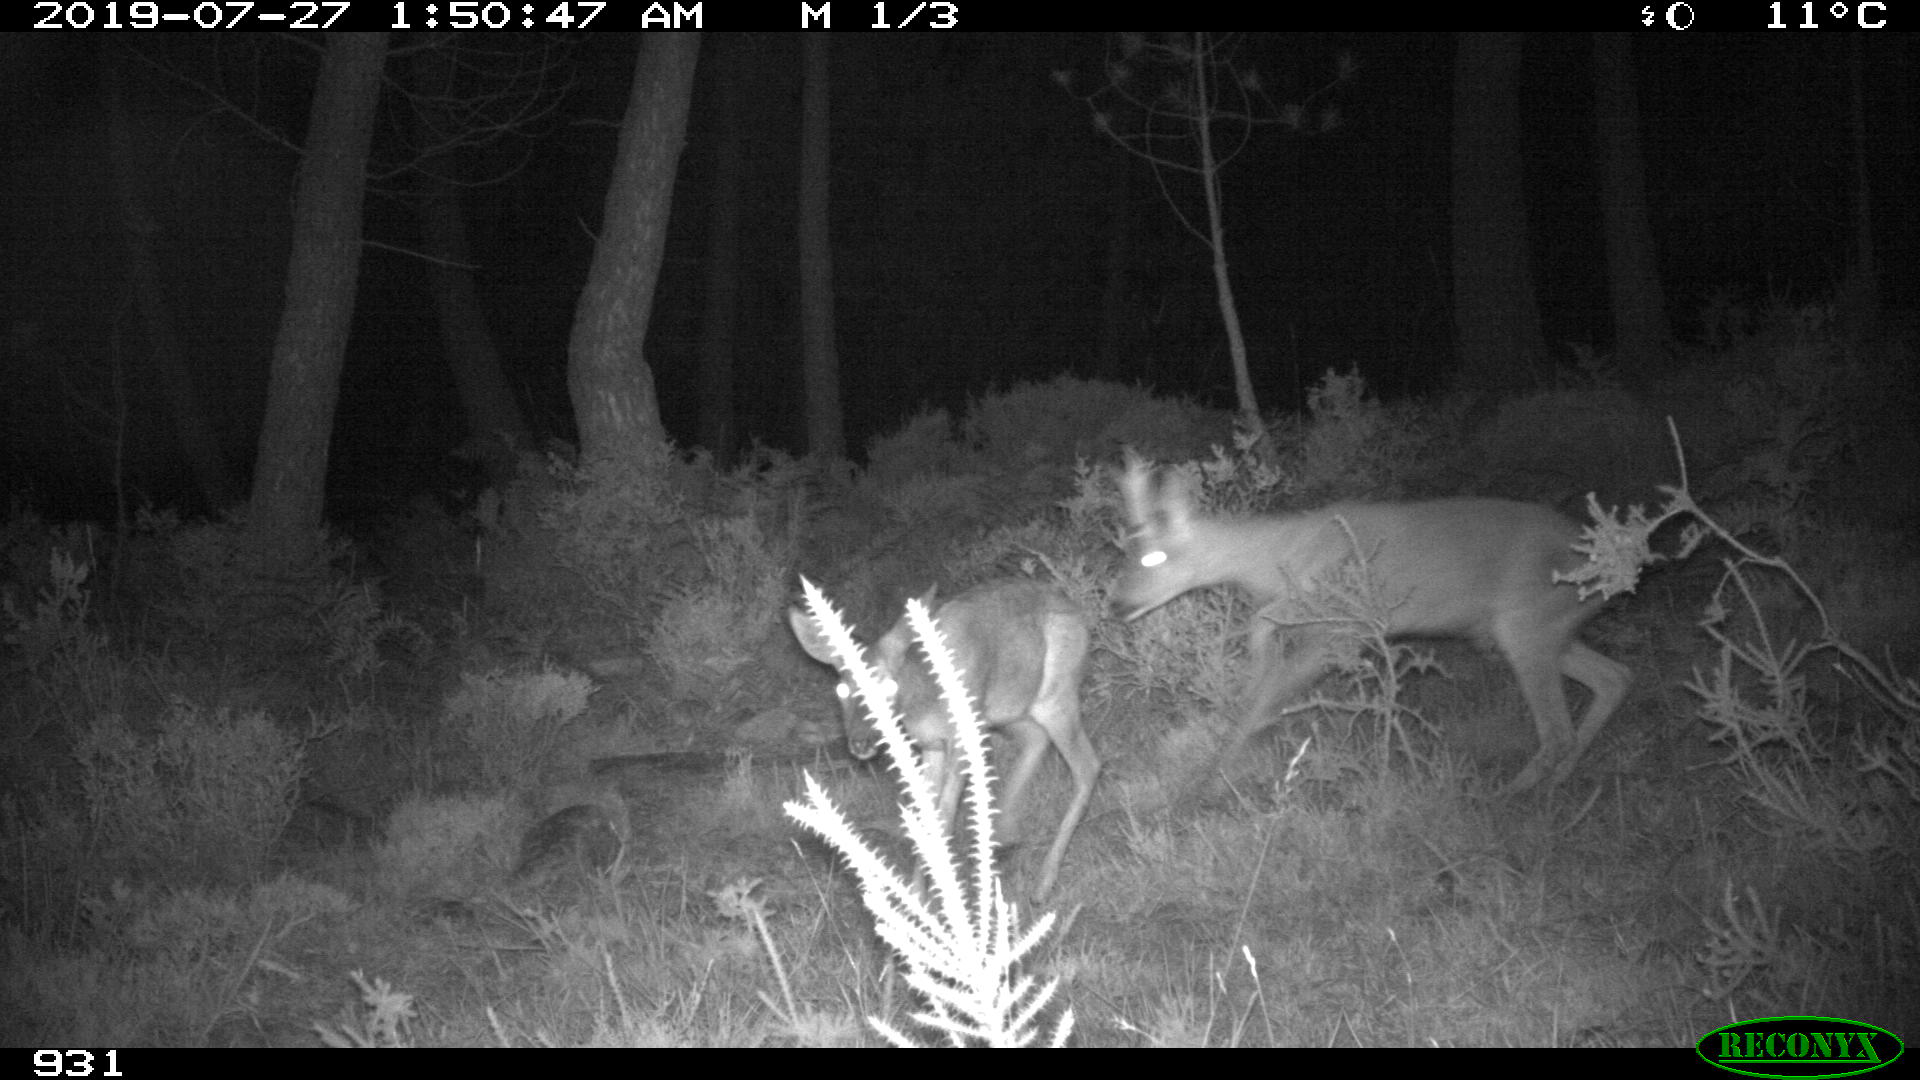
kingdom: Animalia
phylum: Chordata
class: Mammalia
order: Artiodactyla
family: Cervidae
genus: Capreolus
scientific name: Capreolus capreolus
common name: Western roe deer
